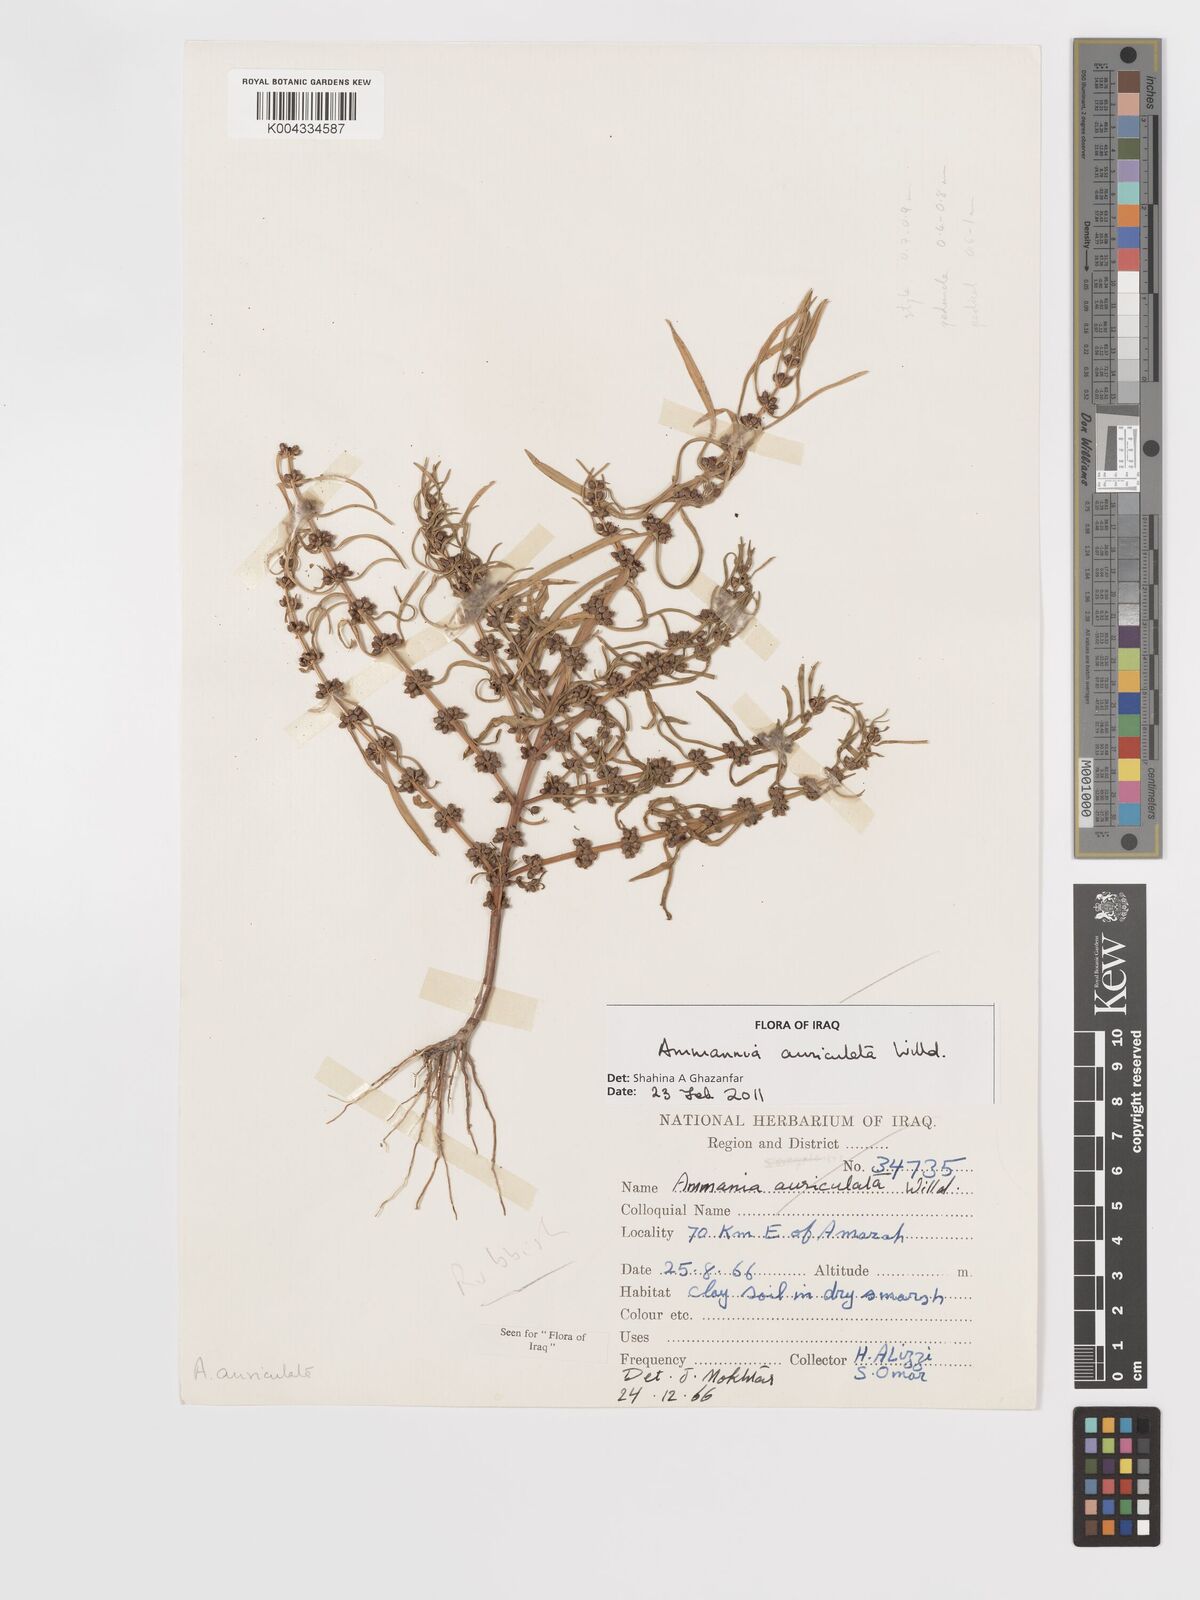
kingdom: Plantae
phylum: Tracheophyta
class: Magnoliopsida
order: Myrtales
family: Lythraceae
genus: Ammannia
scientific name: Ammannia auriculata
